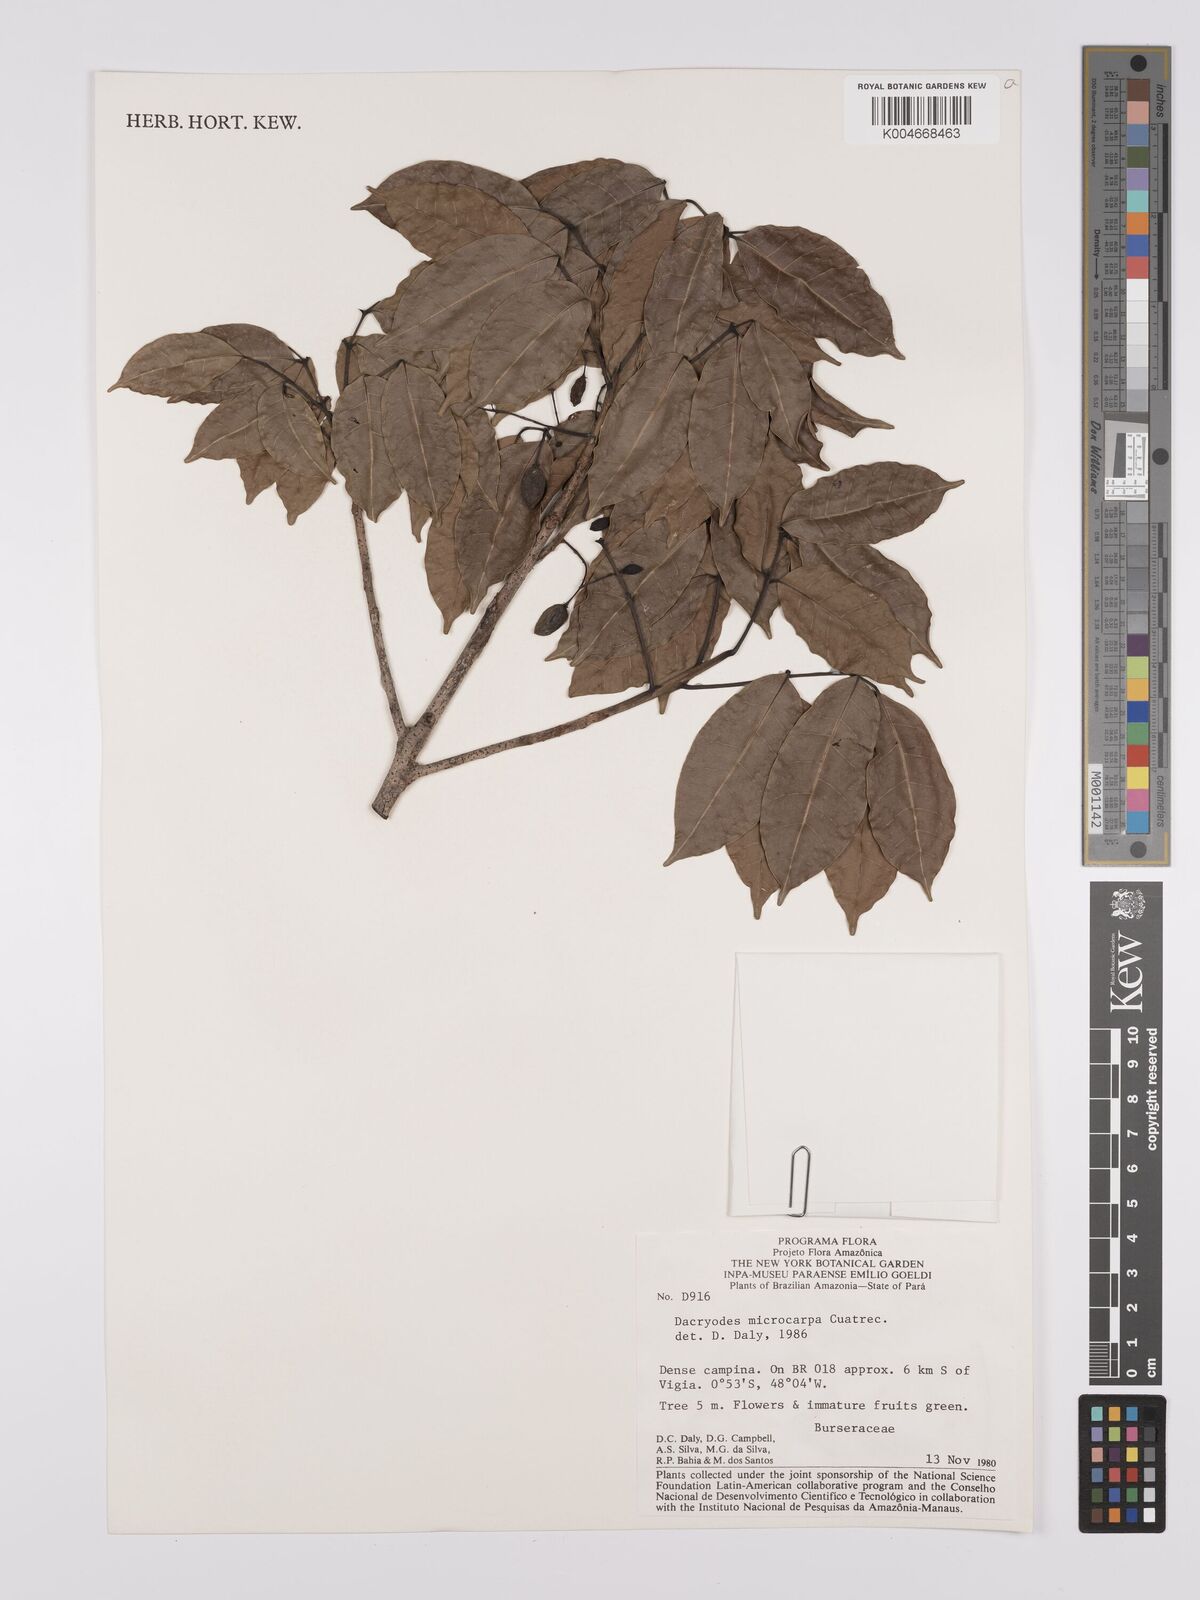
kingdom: Plantae
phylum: Tracheophyta
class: Magnoliopsida
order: Sapindales
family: Burseraceae
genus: Dacryodes
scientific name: Dacryodes microcarpa
